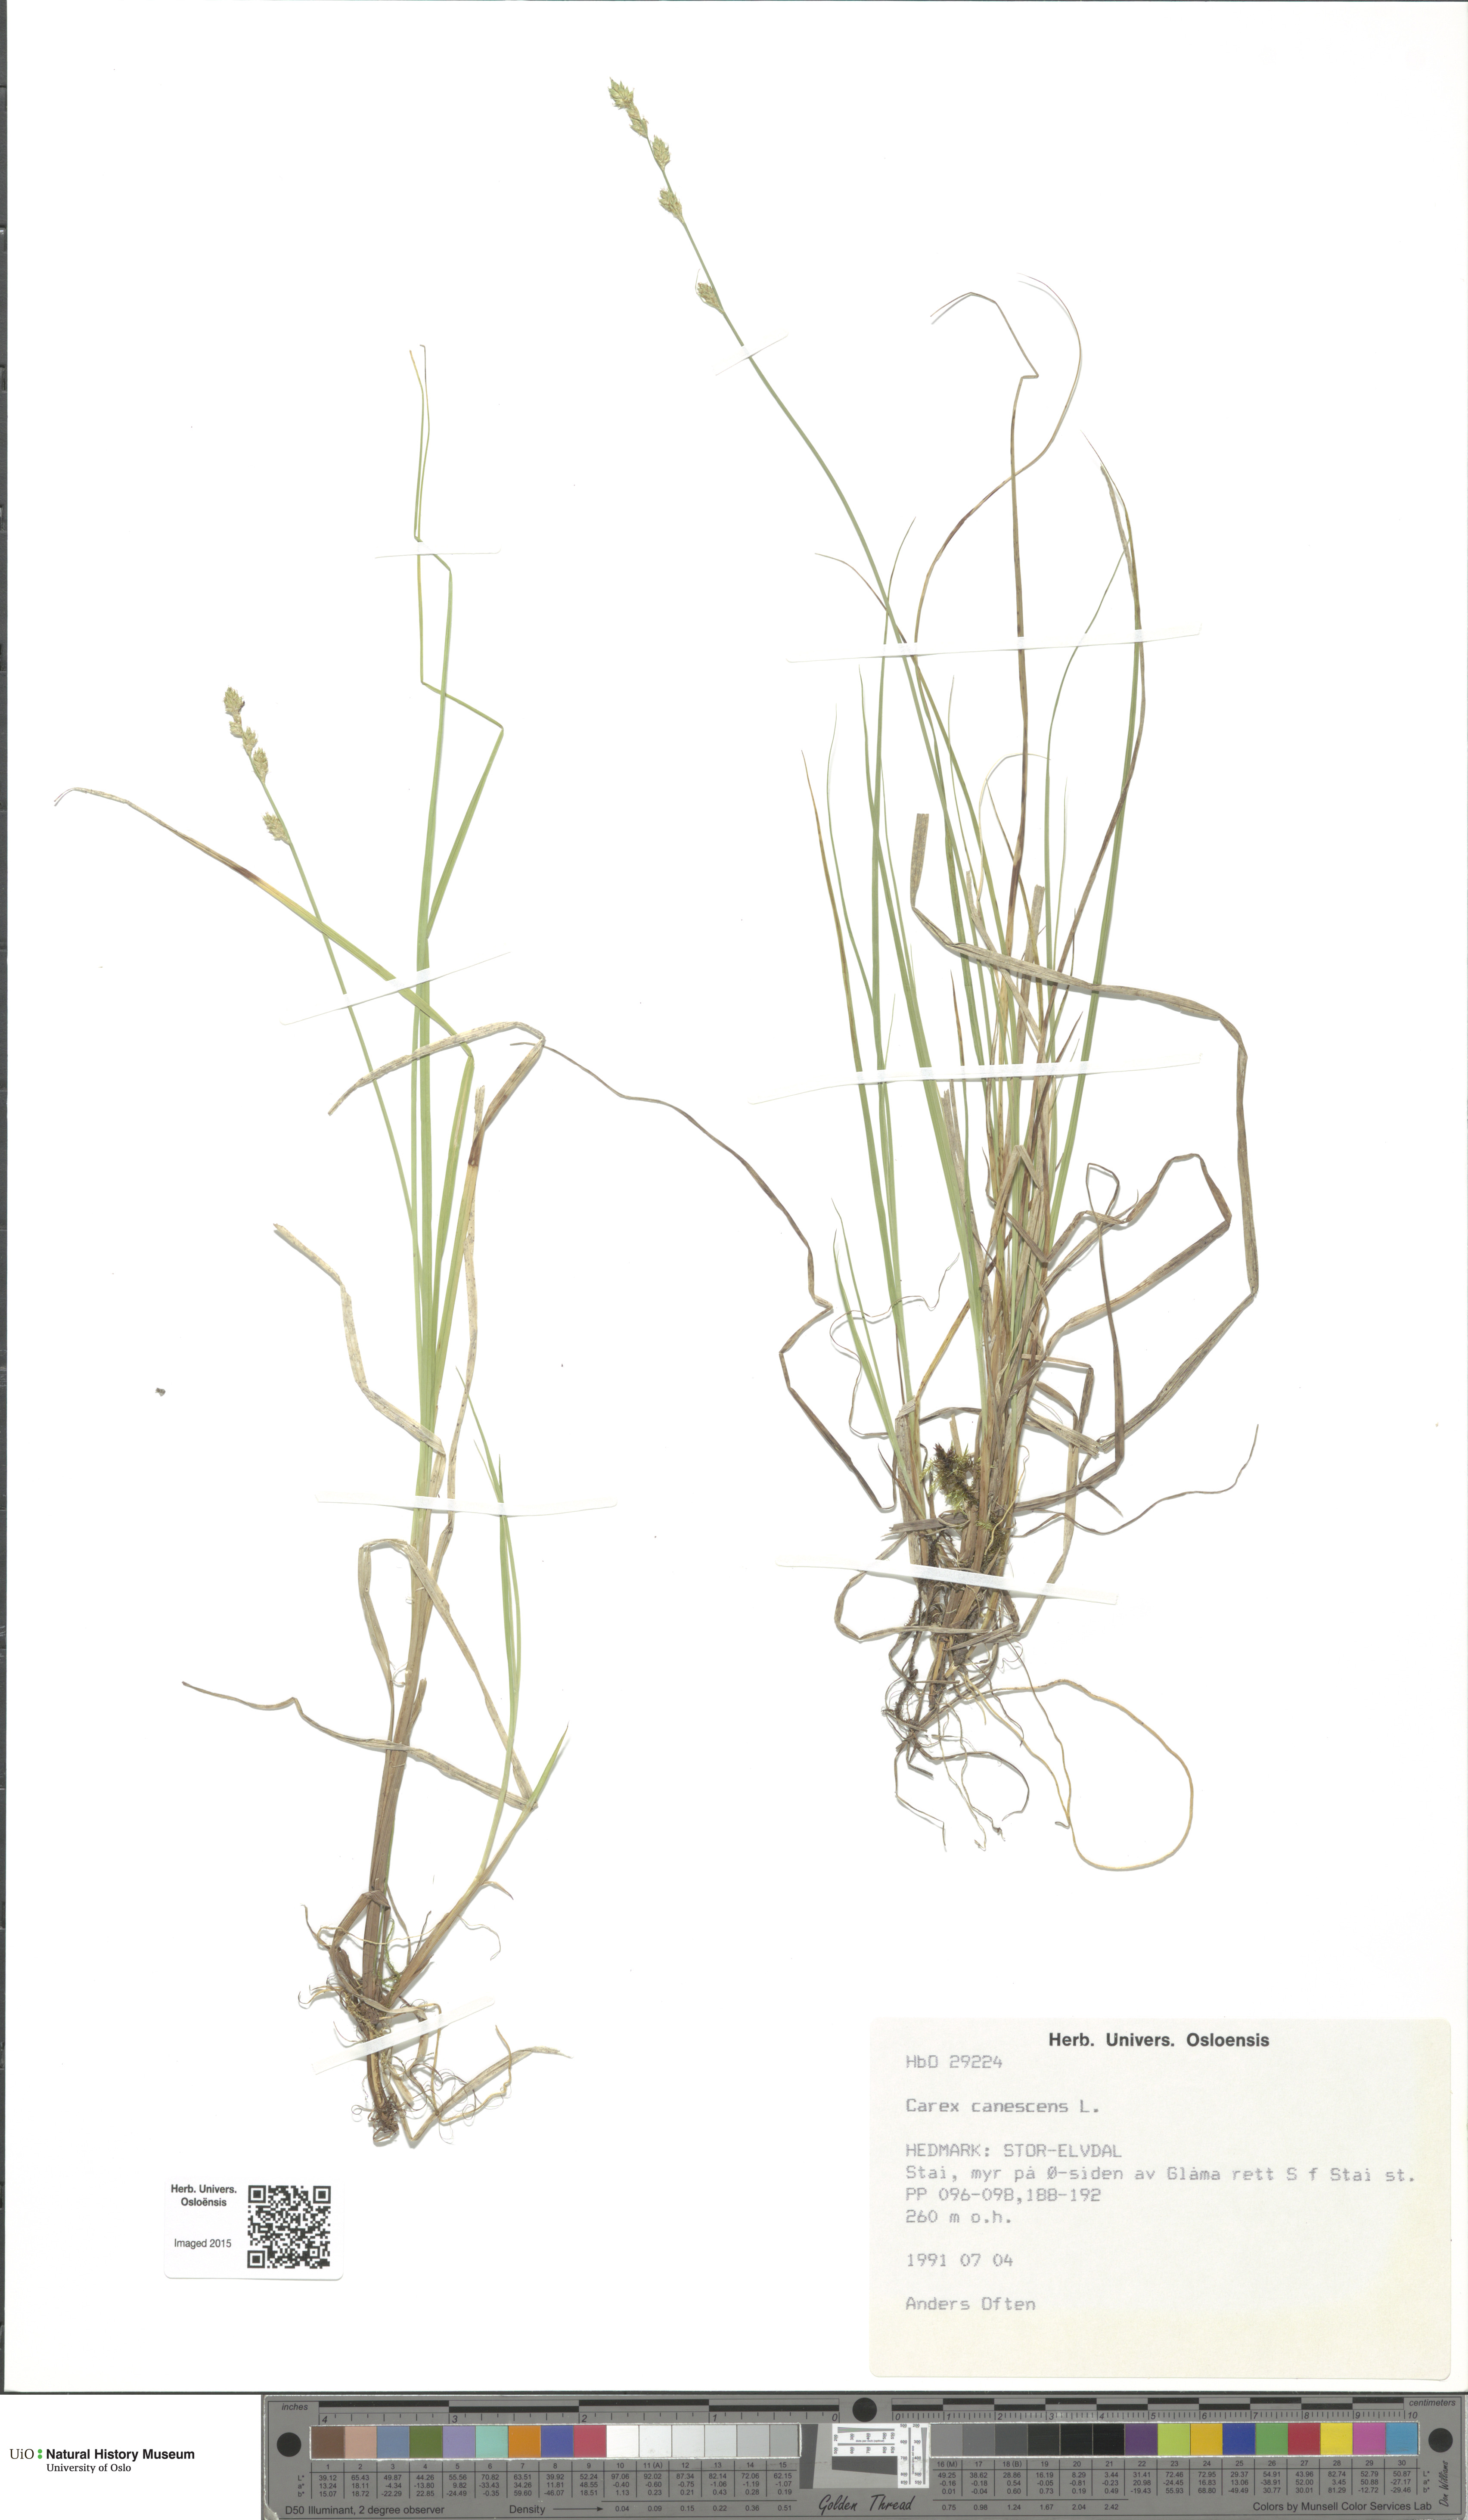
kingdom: Plantae
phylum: Tracheophyta
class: Liliopsida
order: Poales
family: Cyperaceae
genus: Carex
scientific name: Carex canescens
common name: White sedge
